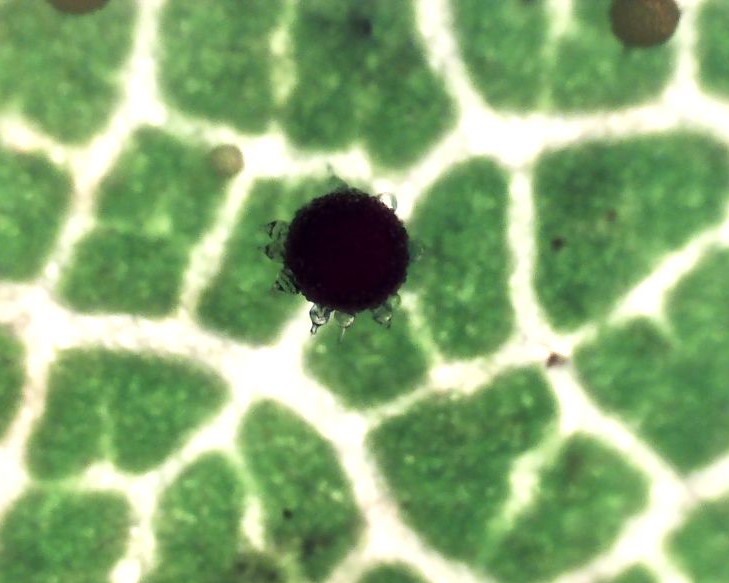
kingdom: Fungi
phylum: Ascomycota
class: Leotiomycetes
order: Helotiales
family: Erysiphaceae
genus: Phyllactinia
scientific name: Phyllactinia orbicularis
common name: bøge-meldug
